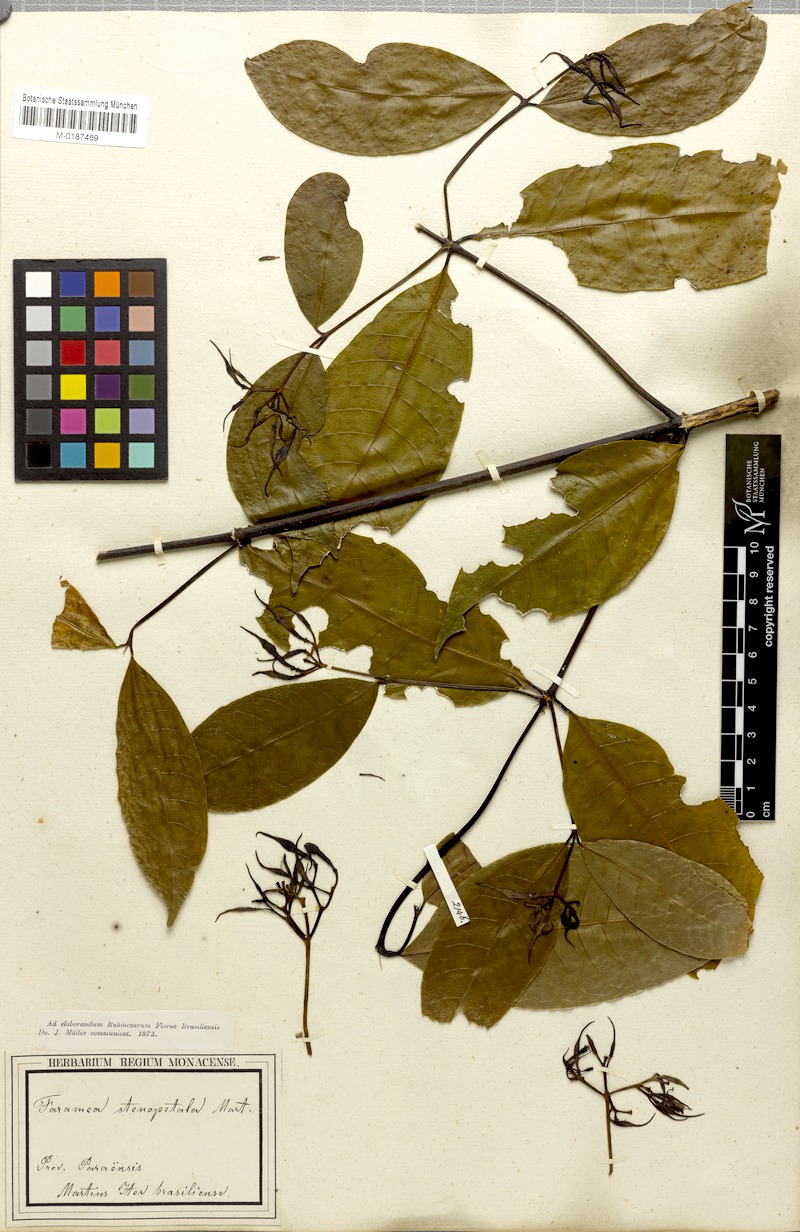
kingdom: Plantae
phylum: Tracheophyta
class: Magnoliopsida
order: Gentianales
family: Rubiaceae
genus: Faramea
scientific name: Faramea stenopetala
